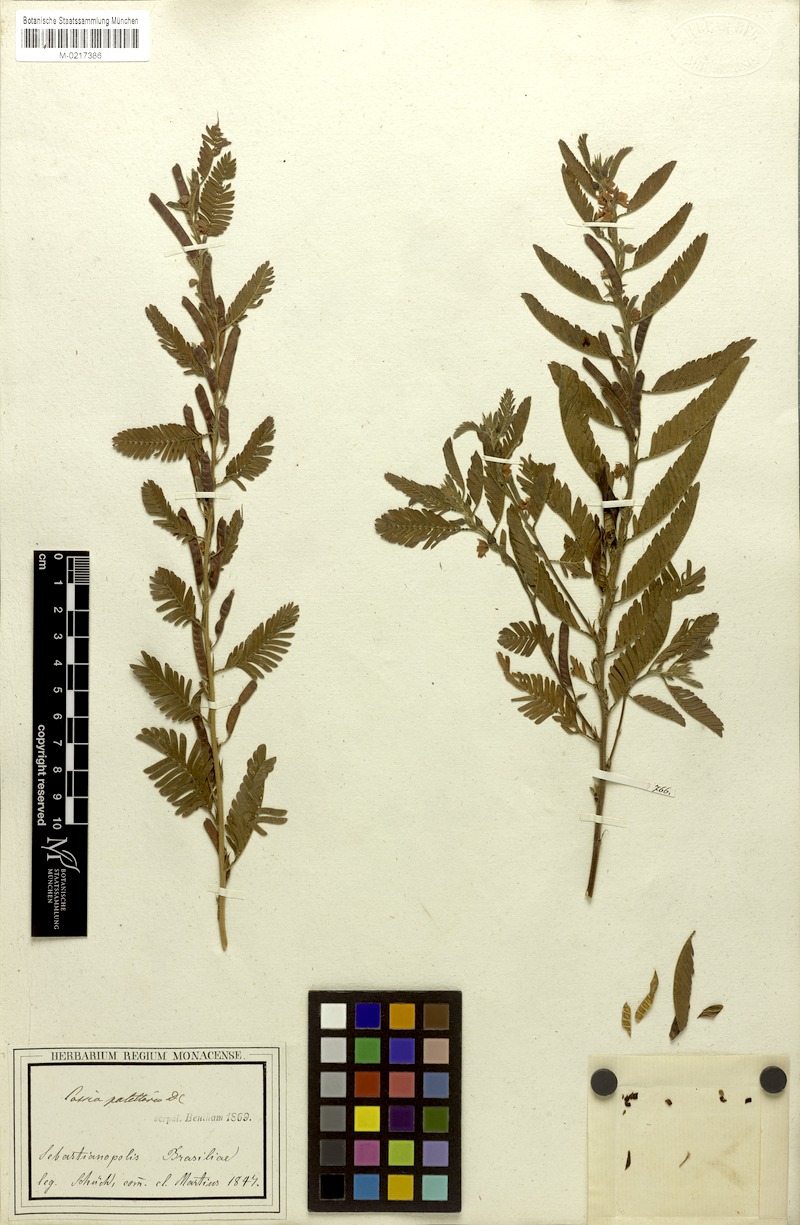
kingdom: Plantae
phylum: Tracheophyta
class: Magnoliopsida
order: Fabales
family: Fabaceae
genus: Chamaecrista
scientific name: Chamaecrista nictitans
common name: Sensitive cassia
